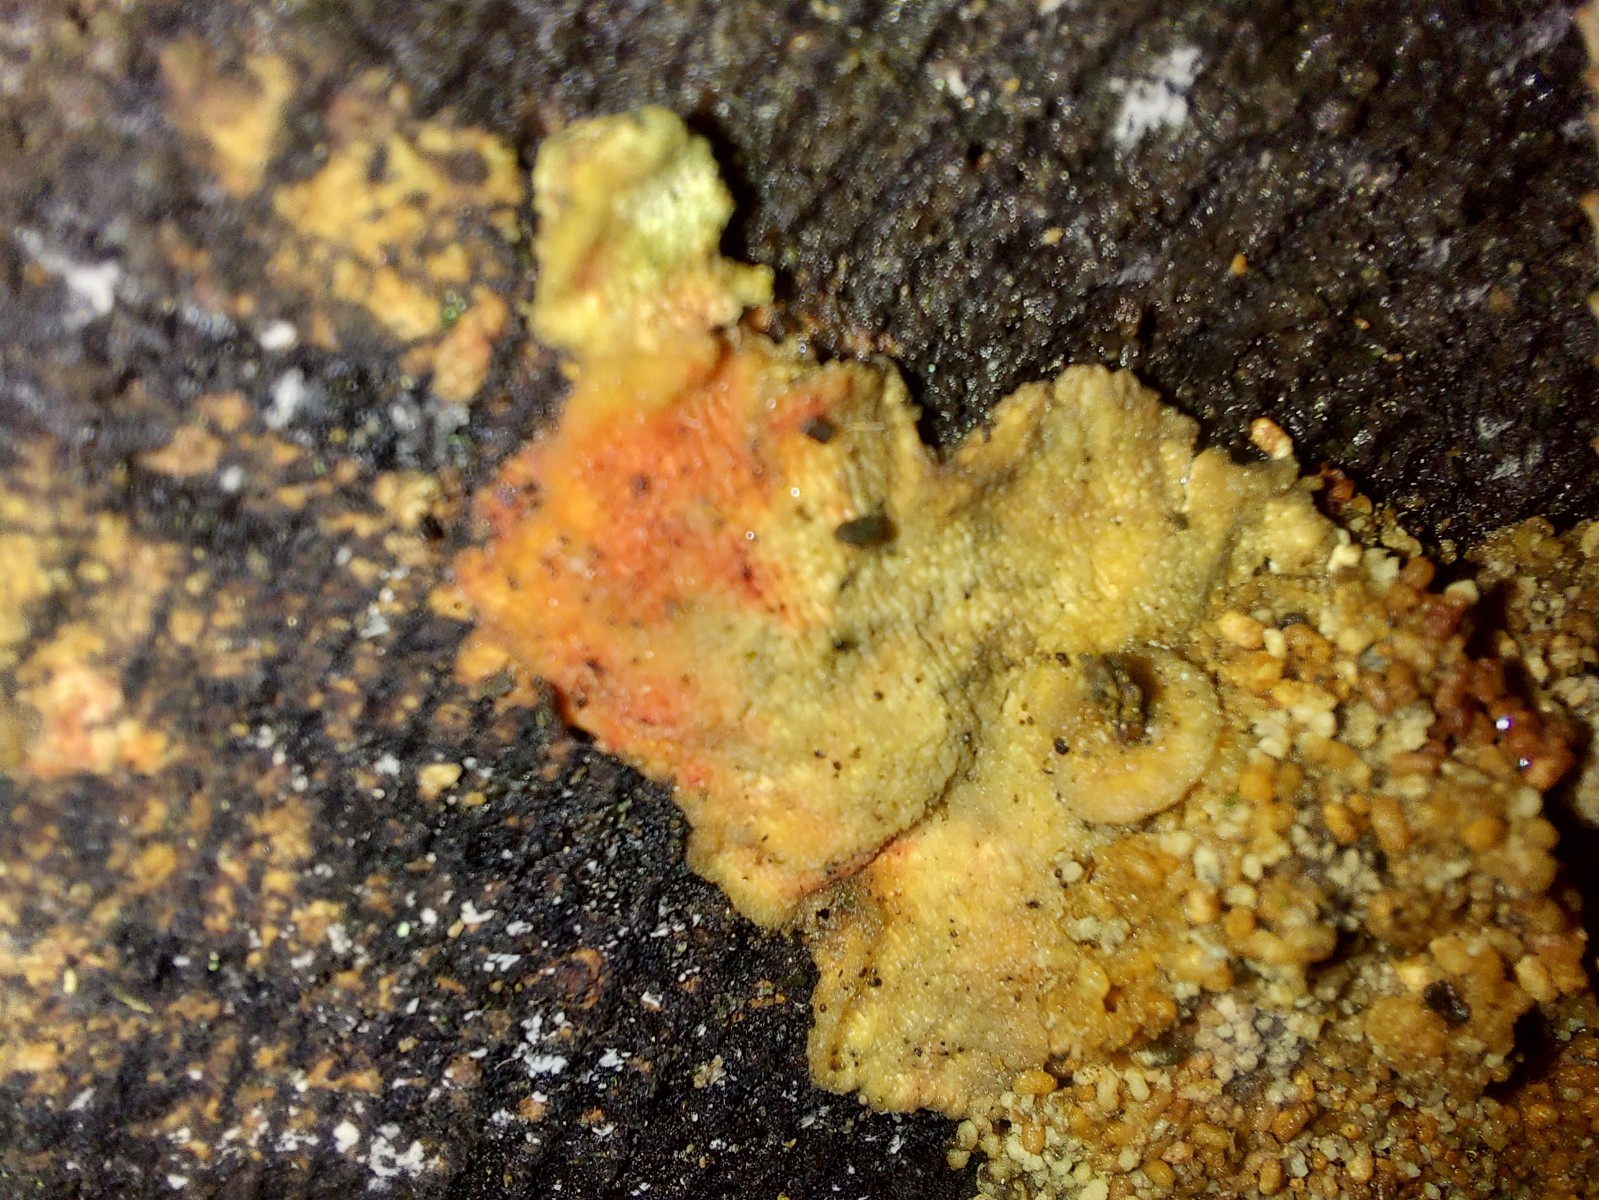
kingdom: Fungi
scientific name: Fungi
